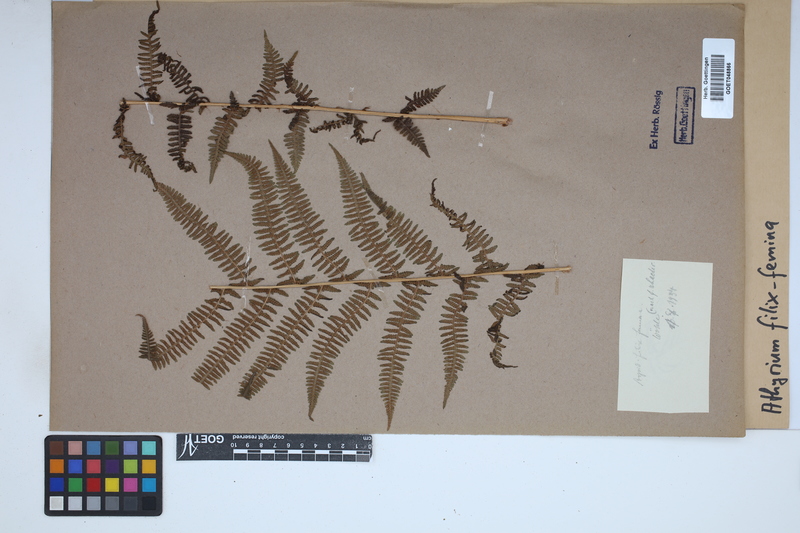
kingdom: Plantae
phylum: Tracheophyta
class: Polypodiopsida
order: Polypodiales
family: Athyriaceae
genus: Athyrium
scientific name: Athyrium filix-femina
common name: Lady fern
